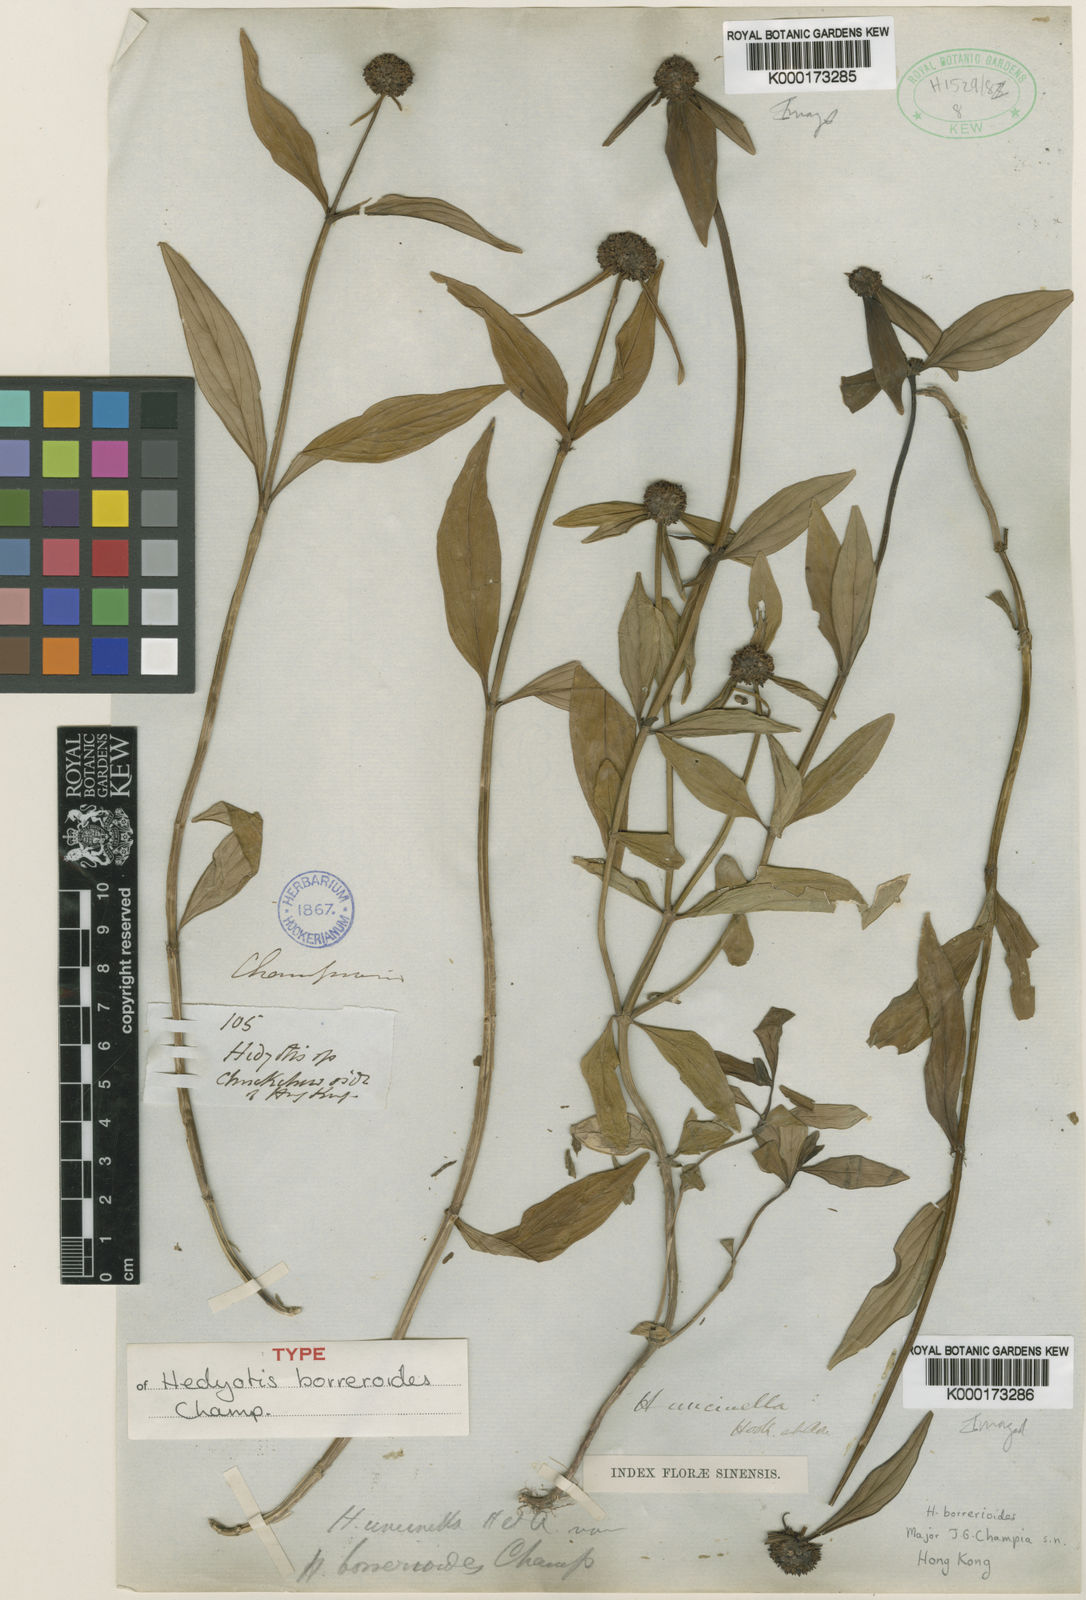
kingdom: Plantae
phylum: Tracheophyta
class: Magnoliopsida
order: Gentianales
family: Rubiaceae
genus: Hedyotis
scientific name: Hedyotis uncinella
